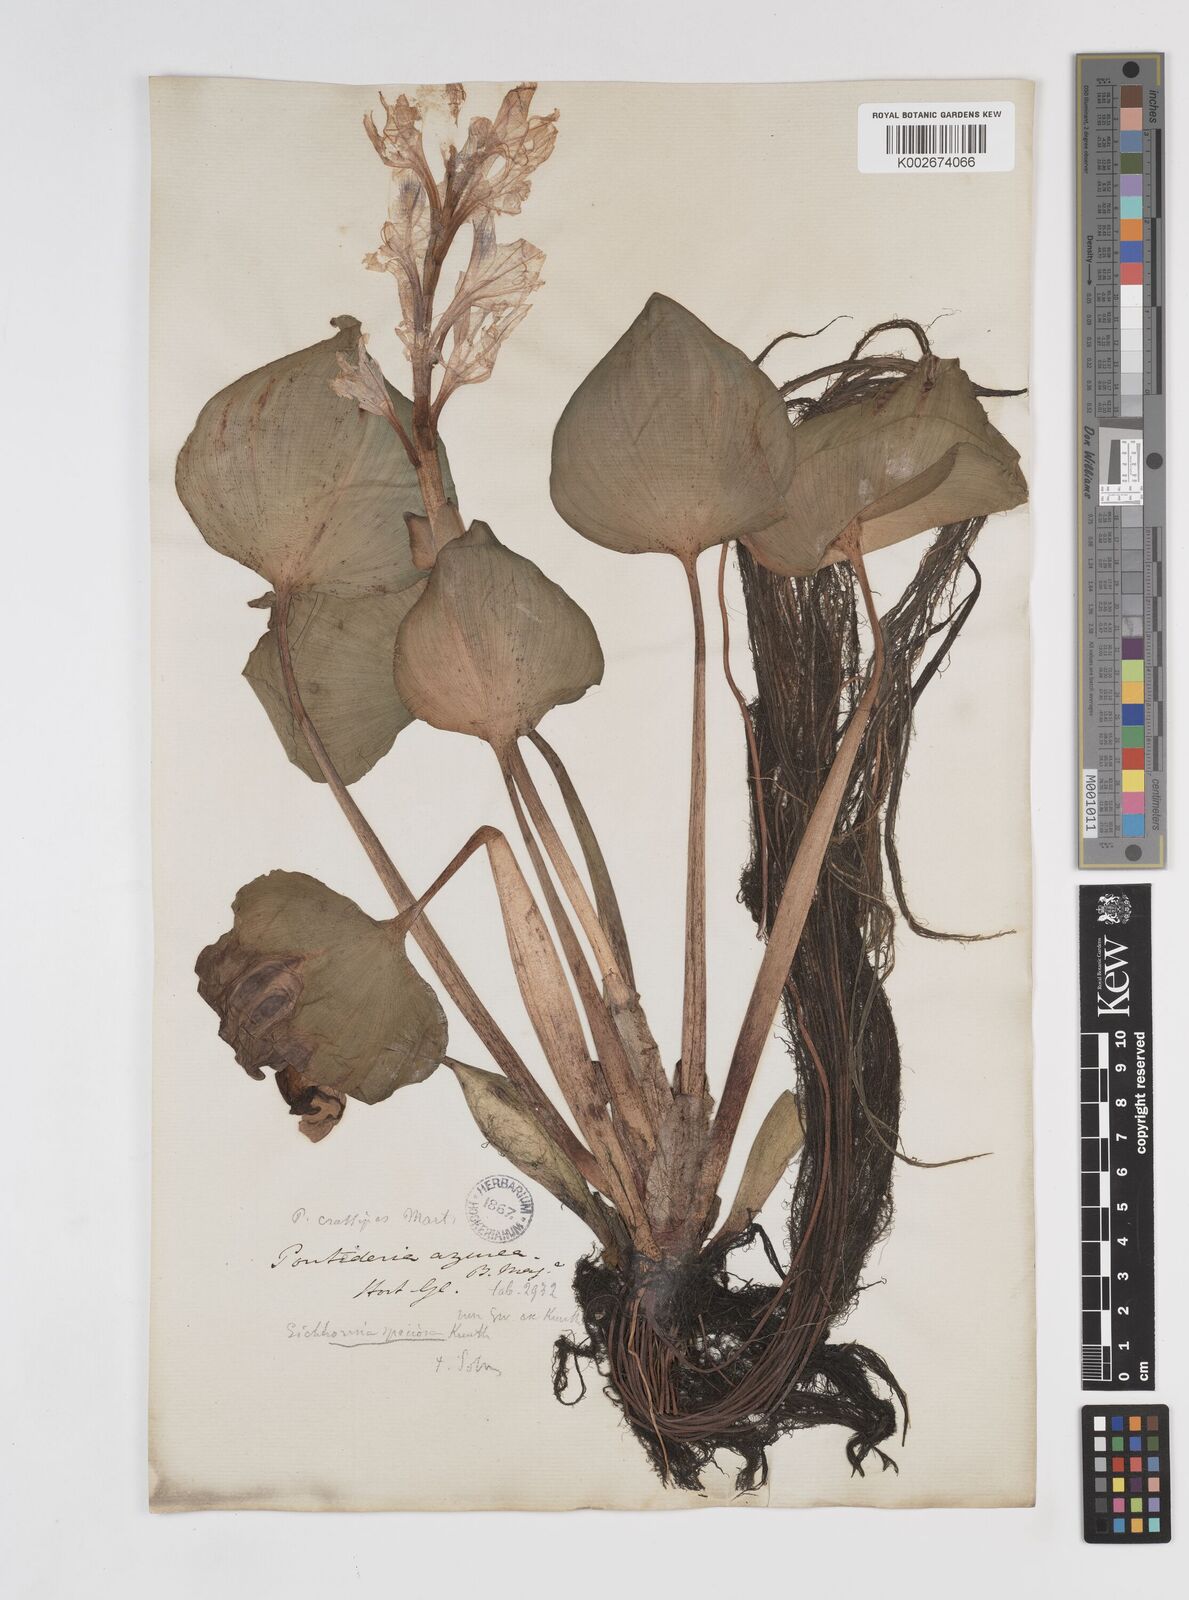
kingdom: Plantae
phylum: Tracheophyta
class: Liliopsida
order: Commelinales
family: Pontederiaceae
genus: Pontederia
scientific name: Pontederia crassipes
